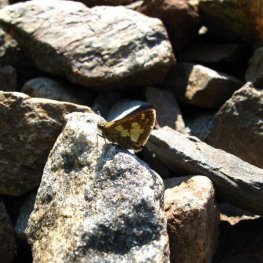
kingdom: Animalia
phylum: Arthropoda
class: Insecta
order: Lepidoptera
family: Hesperiidae
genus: Polites
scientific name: Polites coras
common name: Peck's Skipper
